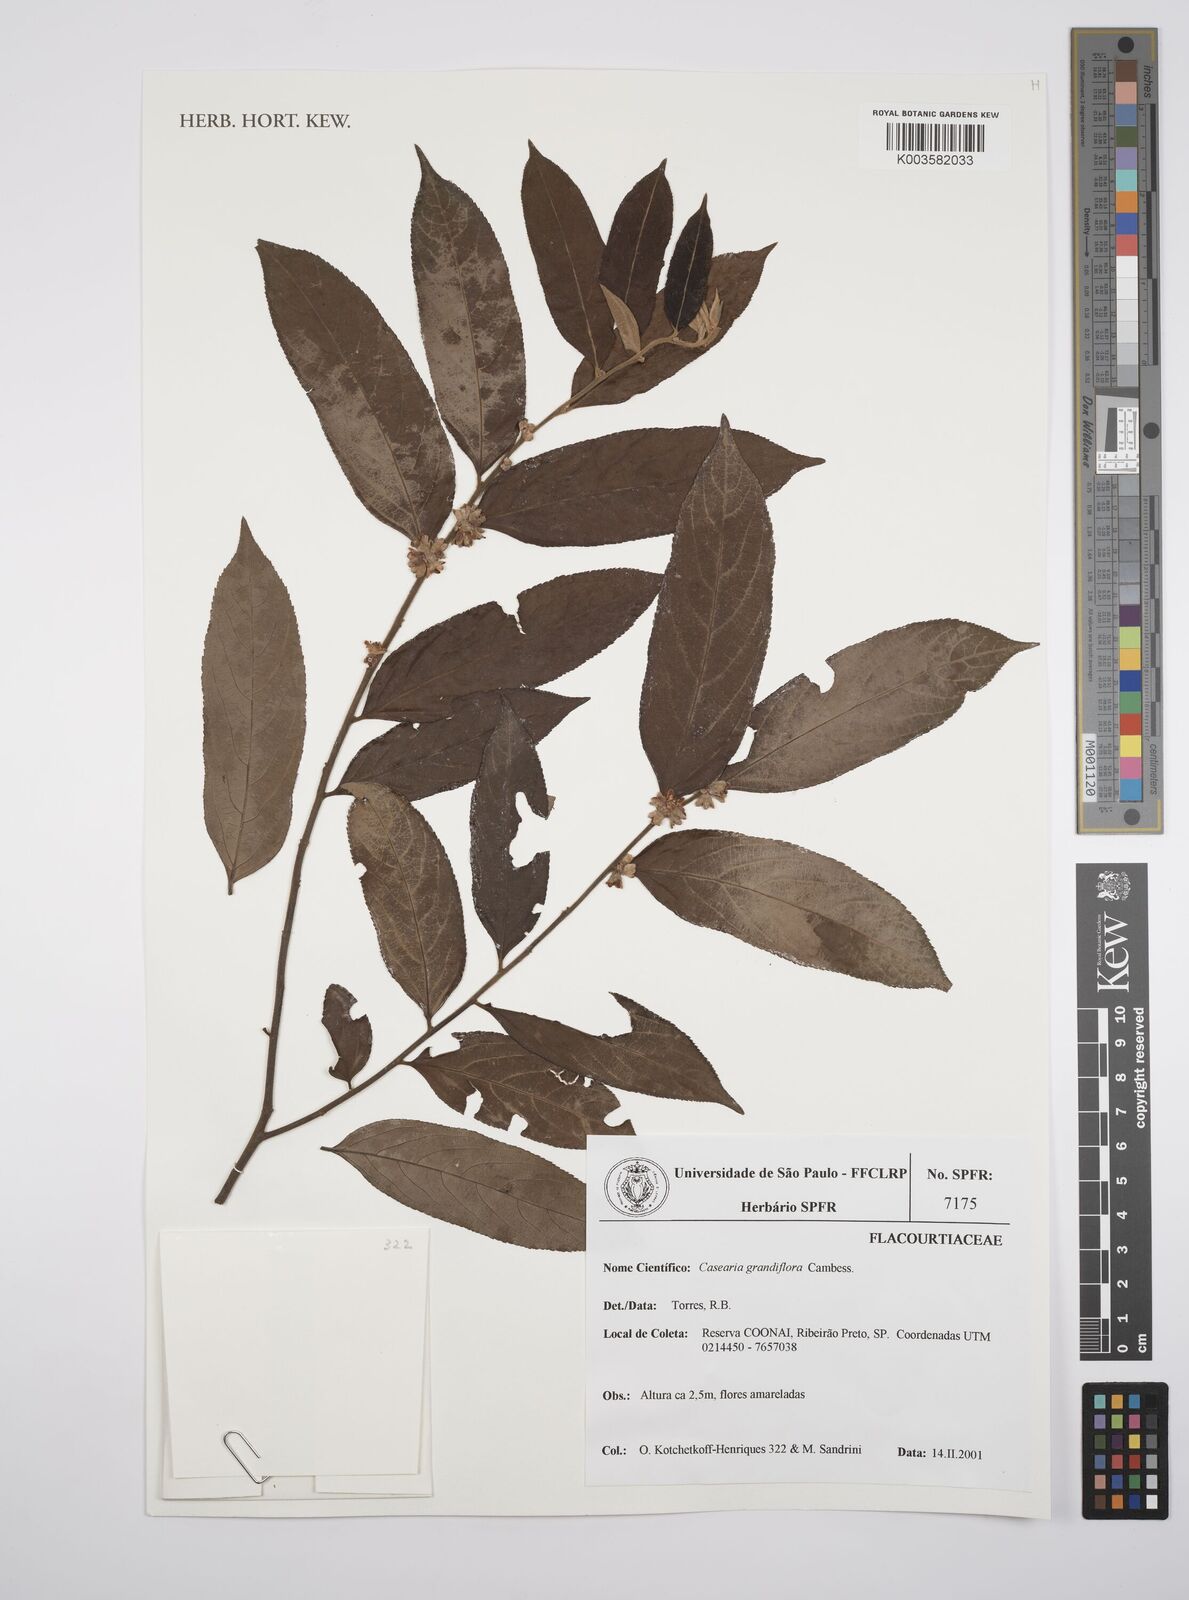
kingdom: Plantae
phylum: Tracheophyta
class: Magnoliopsida
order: Malpighiales
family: Salicaceae
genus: Casearia
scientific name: Casearia grandiflora
